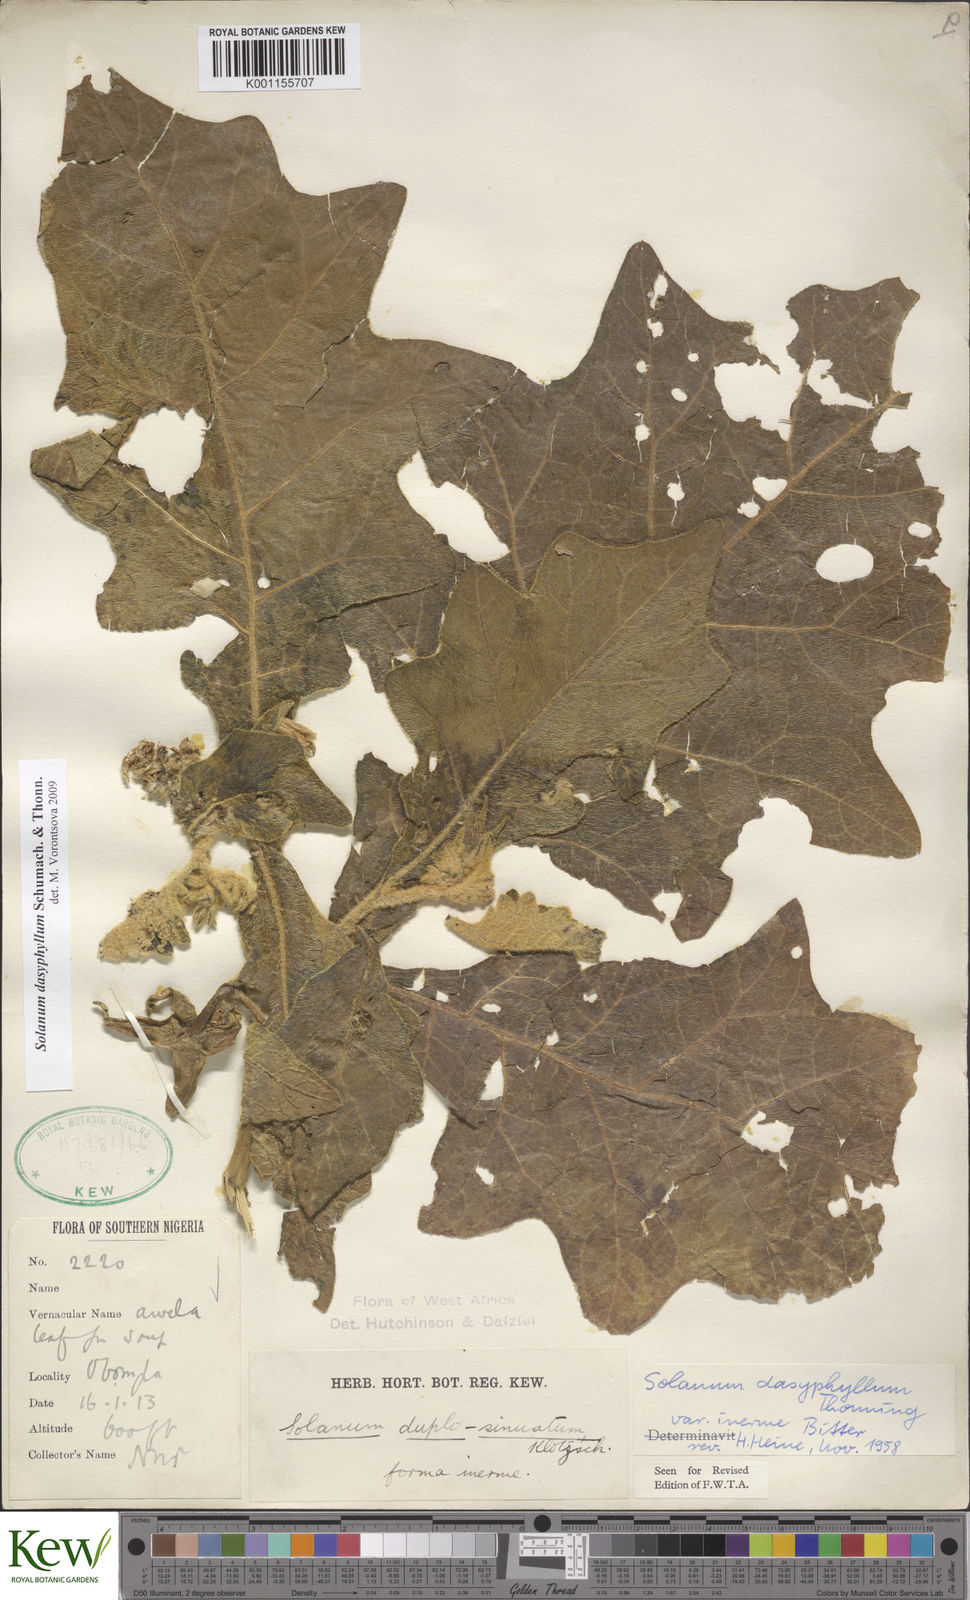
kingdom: Plantae
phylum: Tracheophyta
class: Magnoliopsida
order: Solanales
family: Solanaceae
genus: Solanum
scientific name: Solanum dasyphyllum
